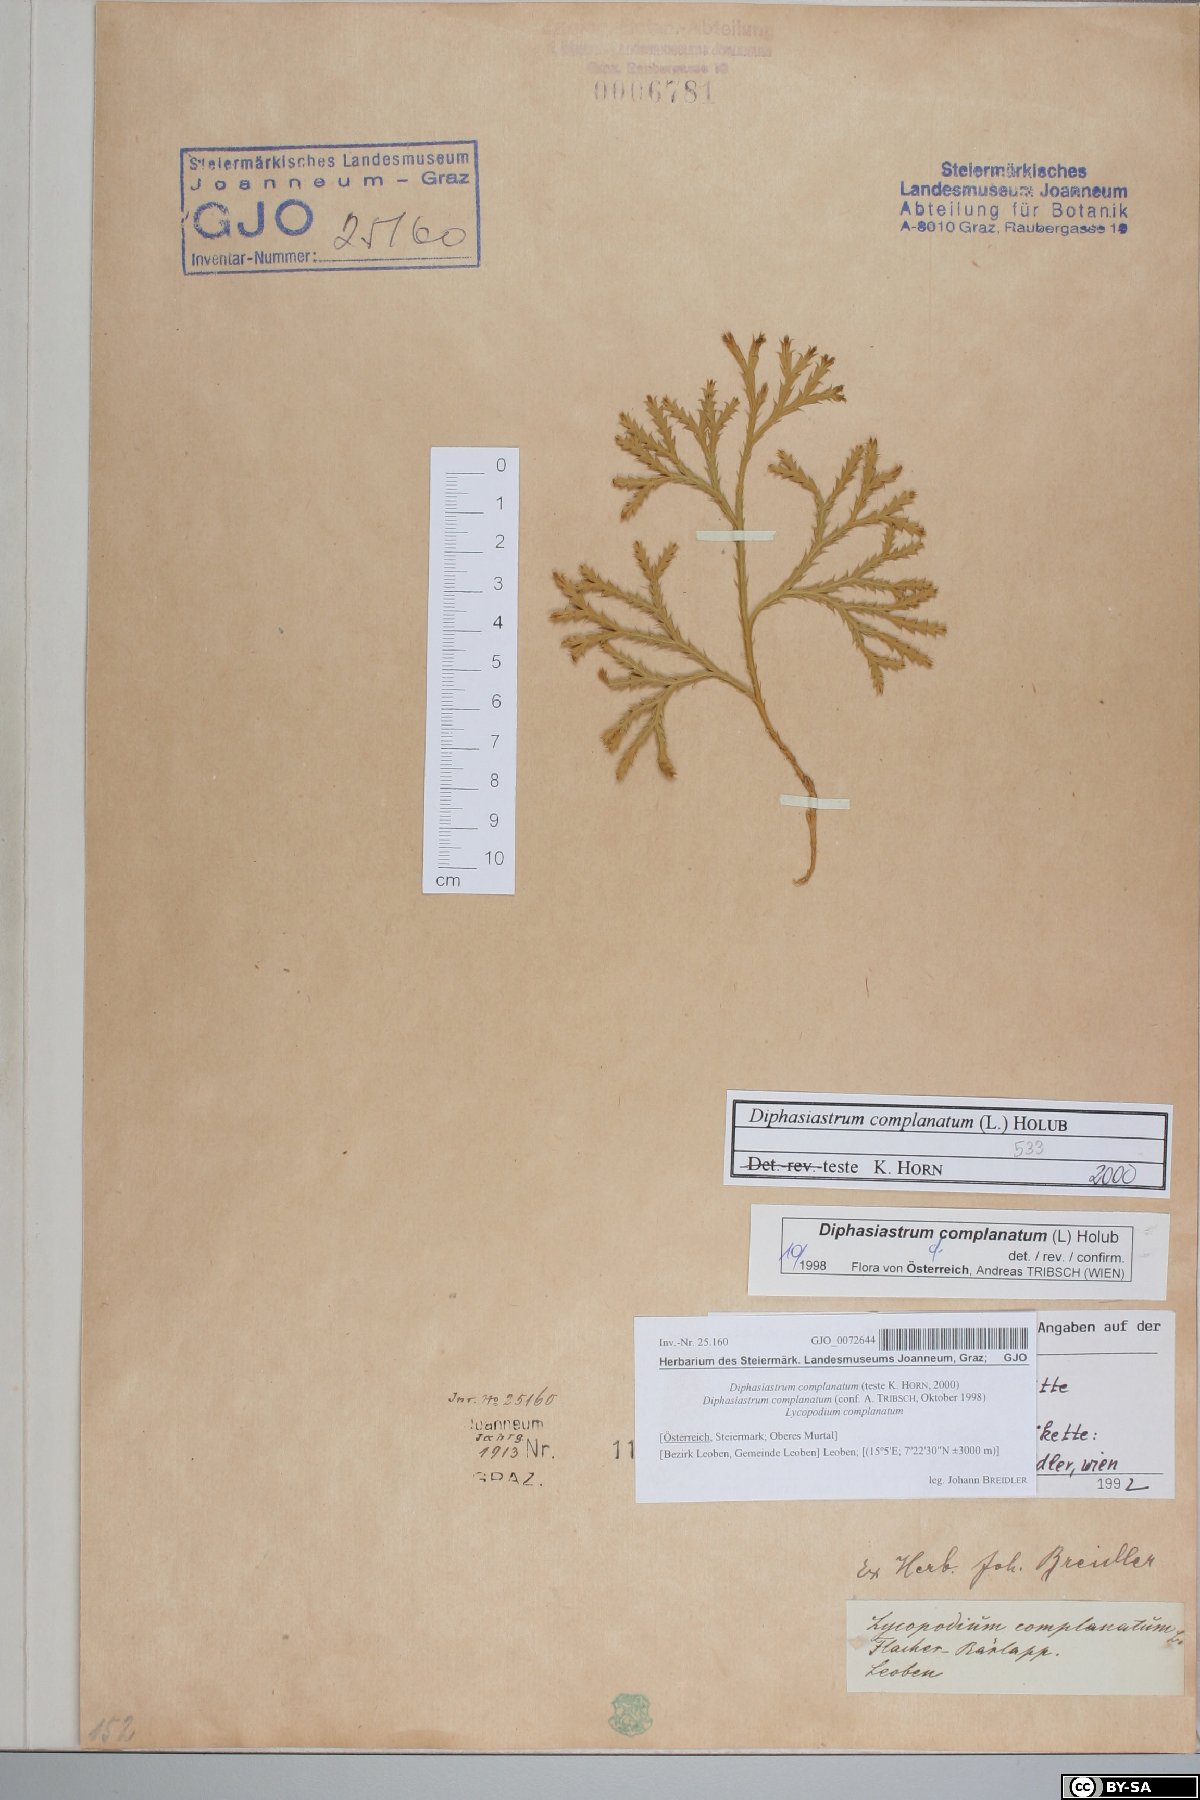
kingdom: Plantae
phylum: Tracheophyta
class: Lycopodiopsida
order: Lycopodiales
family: Lycopodiaceae
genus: Diphasiastrum
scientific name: Diphasiastrum complanatum
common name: Northern running-pine
